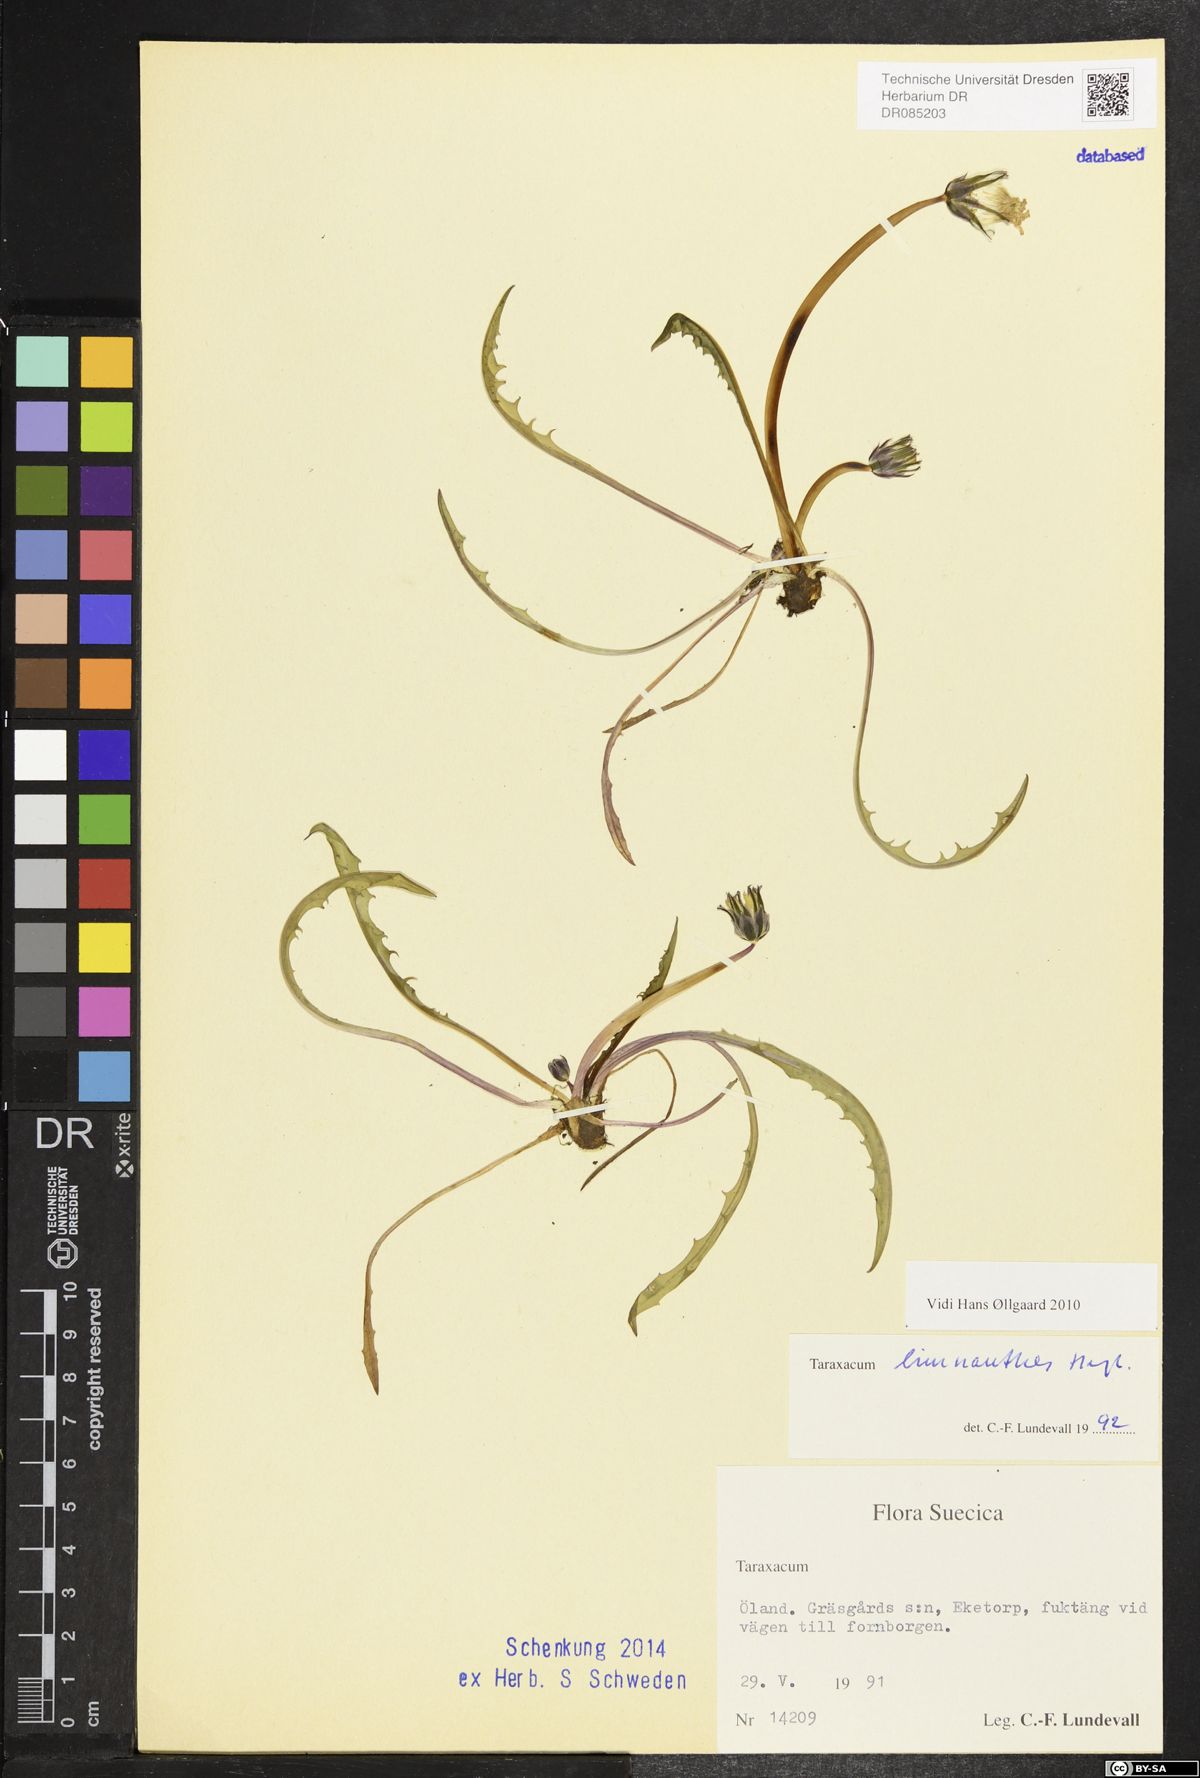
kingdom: Plantae
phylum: Tracheophyta
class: Magnoliopsida
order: Asterales
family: Asteraceae
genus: Taraxacum
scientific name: Taraxacum limnanthes
